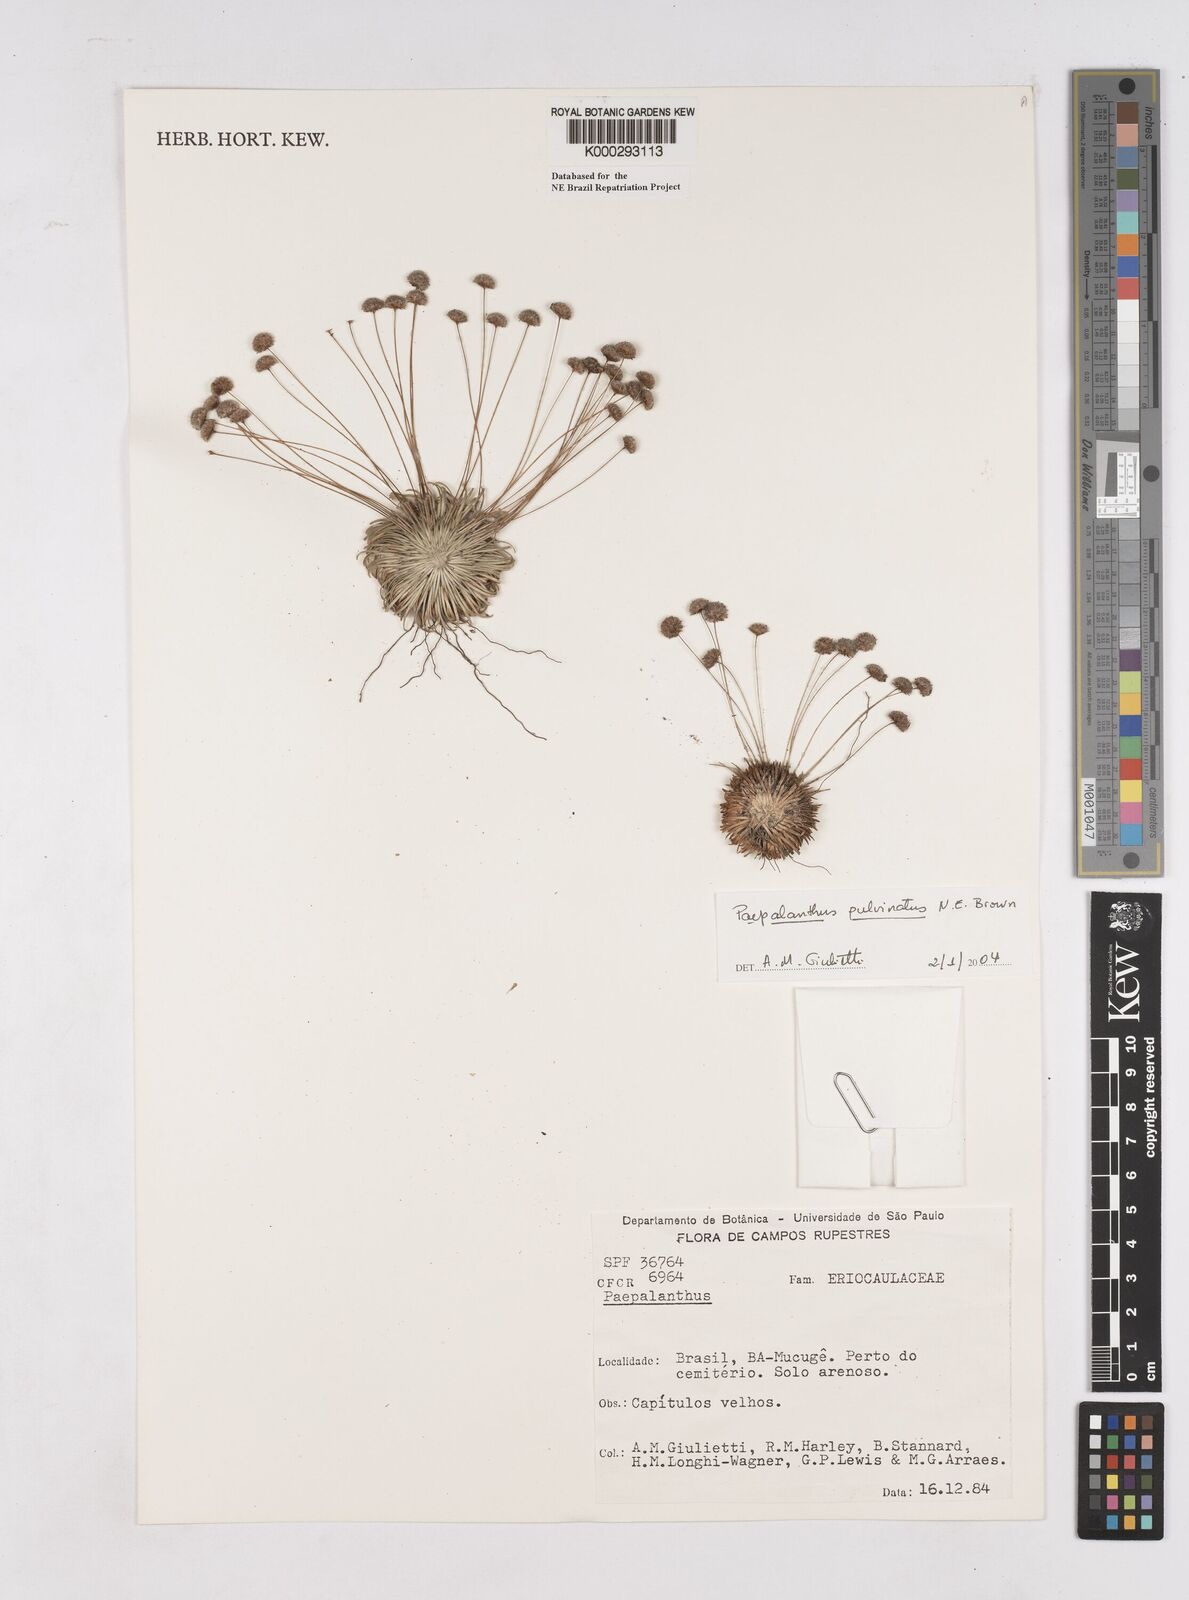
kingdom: Plantae
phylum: Tracheophyta
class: Liliopsida
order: Poales
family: Eriocaulaceae
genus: Paepalanthus
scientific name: Paepalanthus pulvinatus
